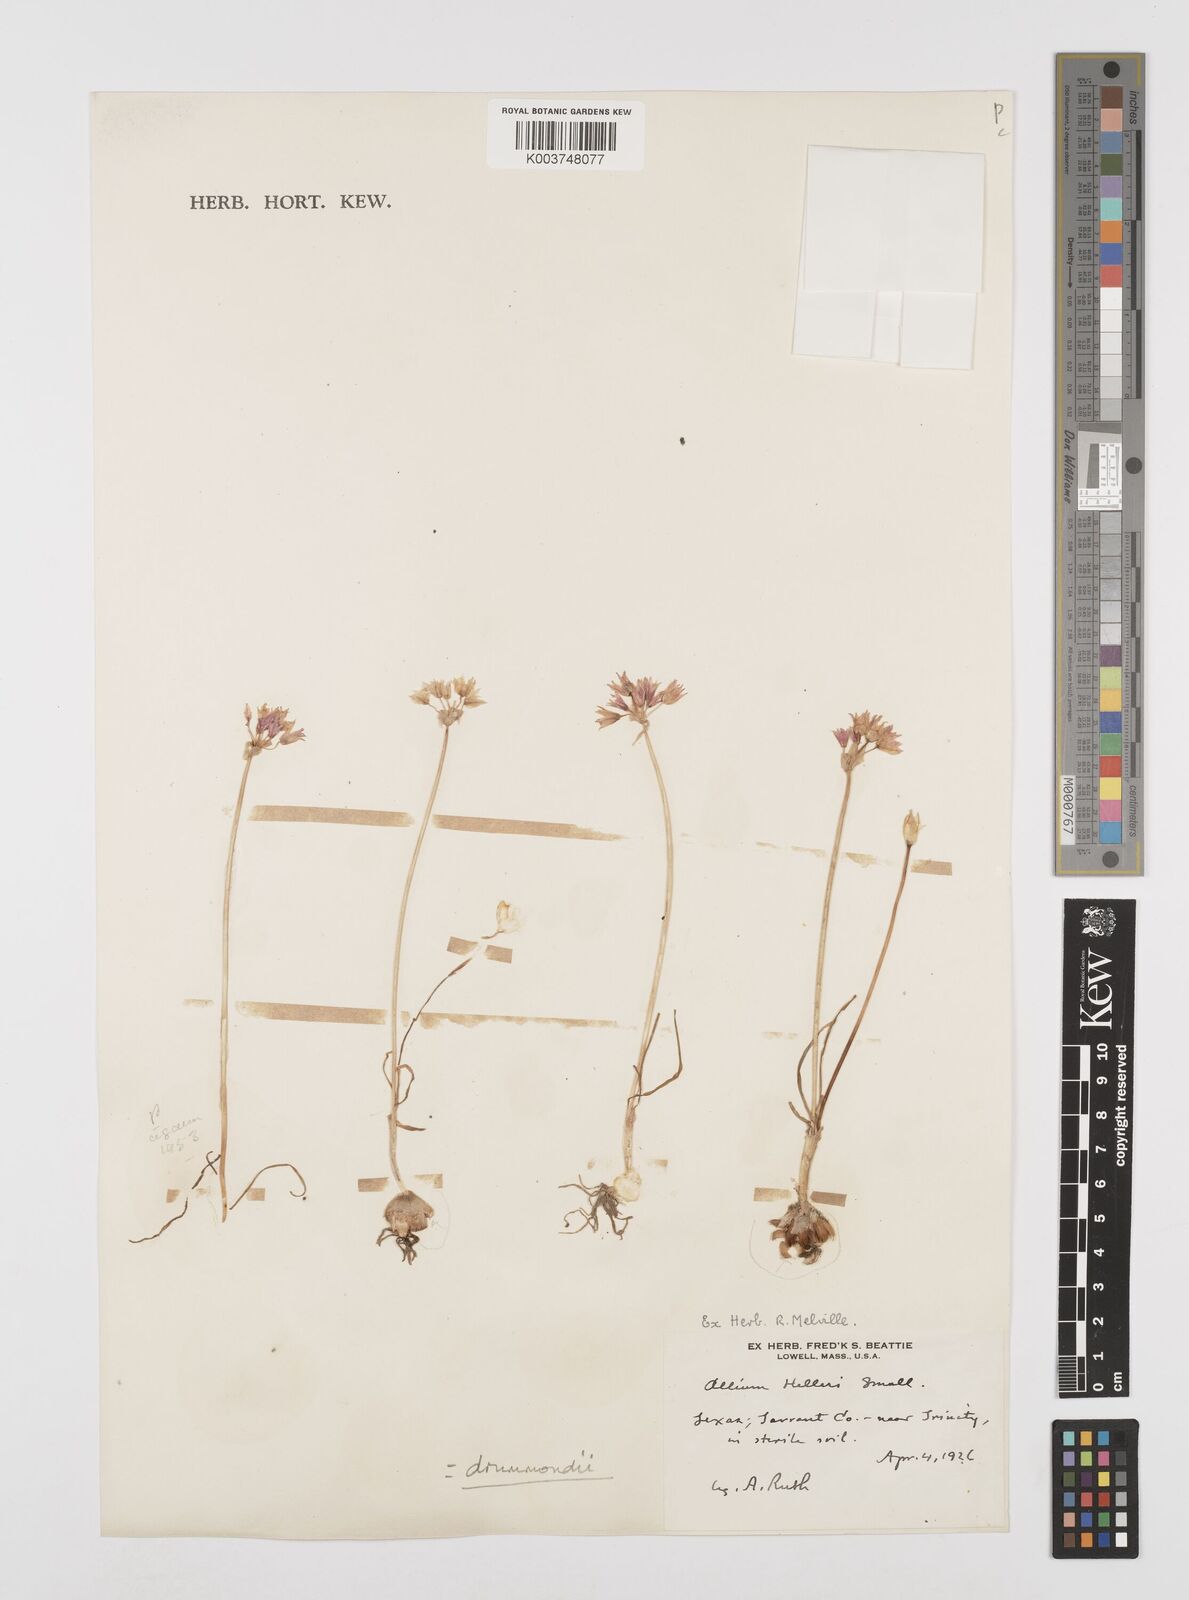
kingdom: Plantae
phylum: Tracheophyta
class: Liliopsida
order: Asparagales
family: Amaryllidaceae
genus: Allium
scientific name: Allium drummondii
